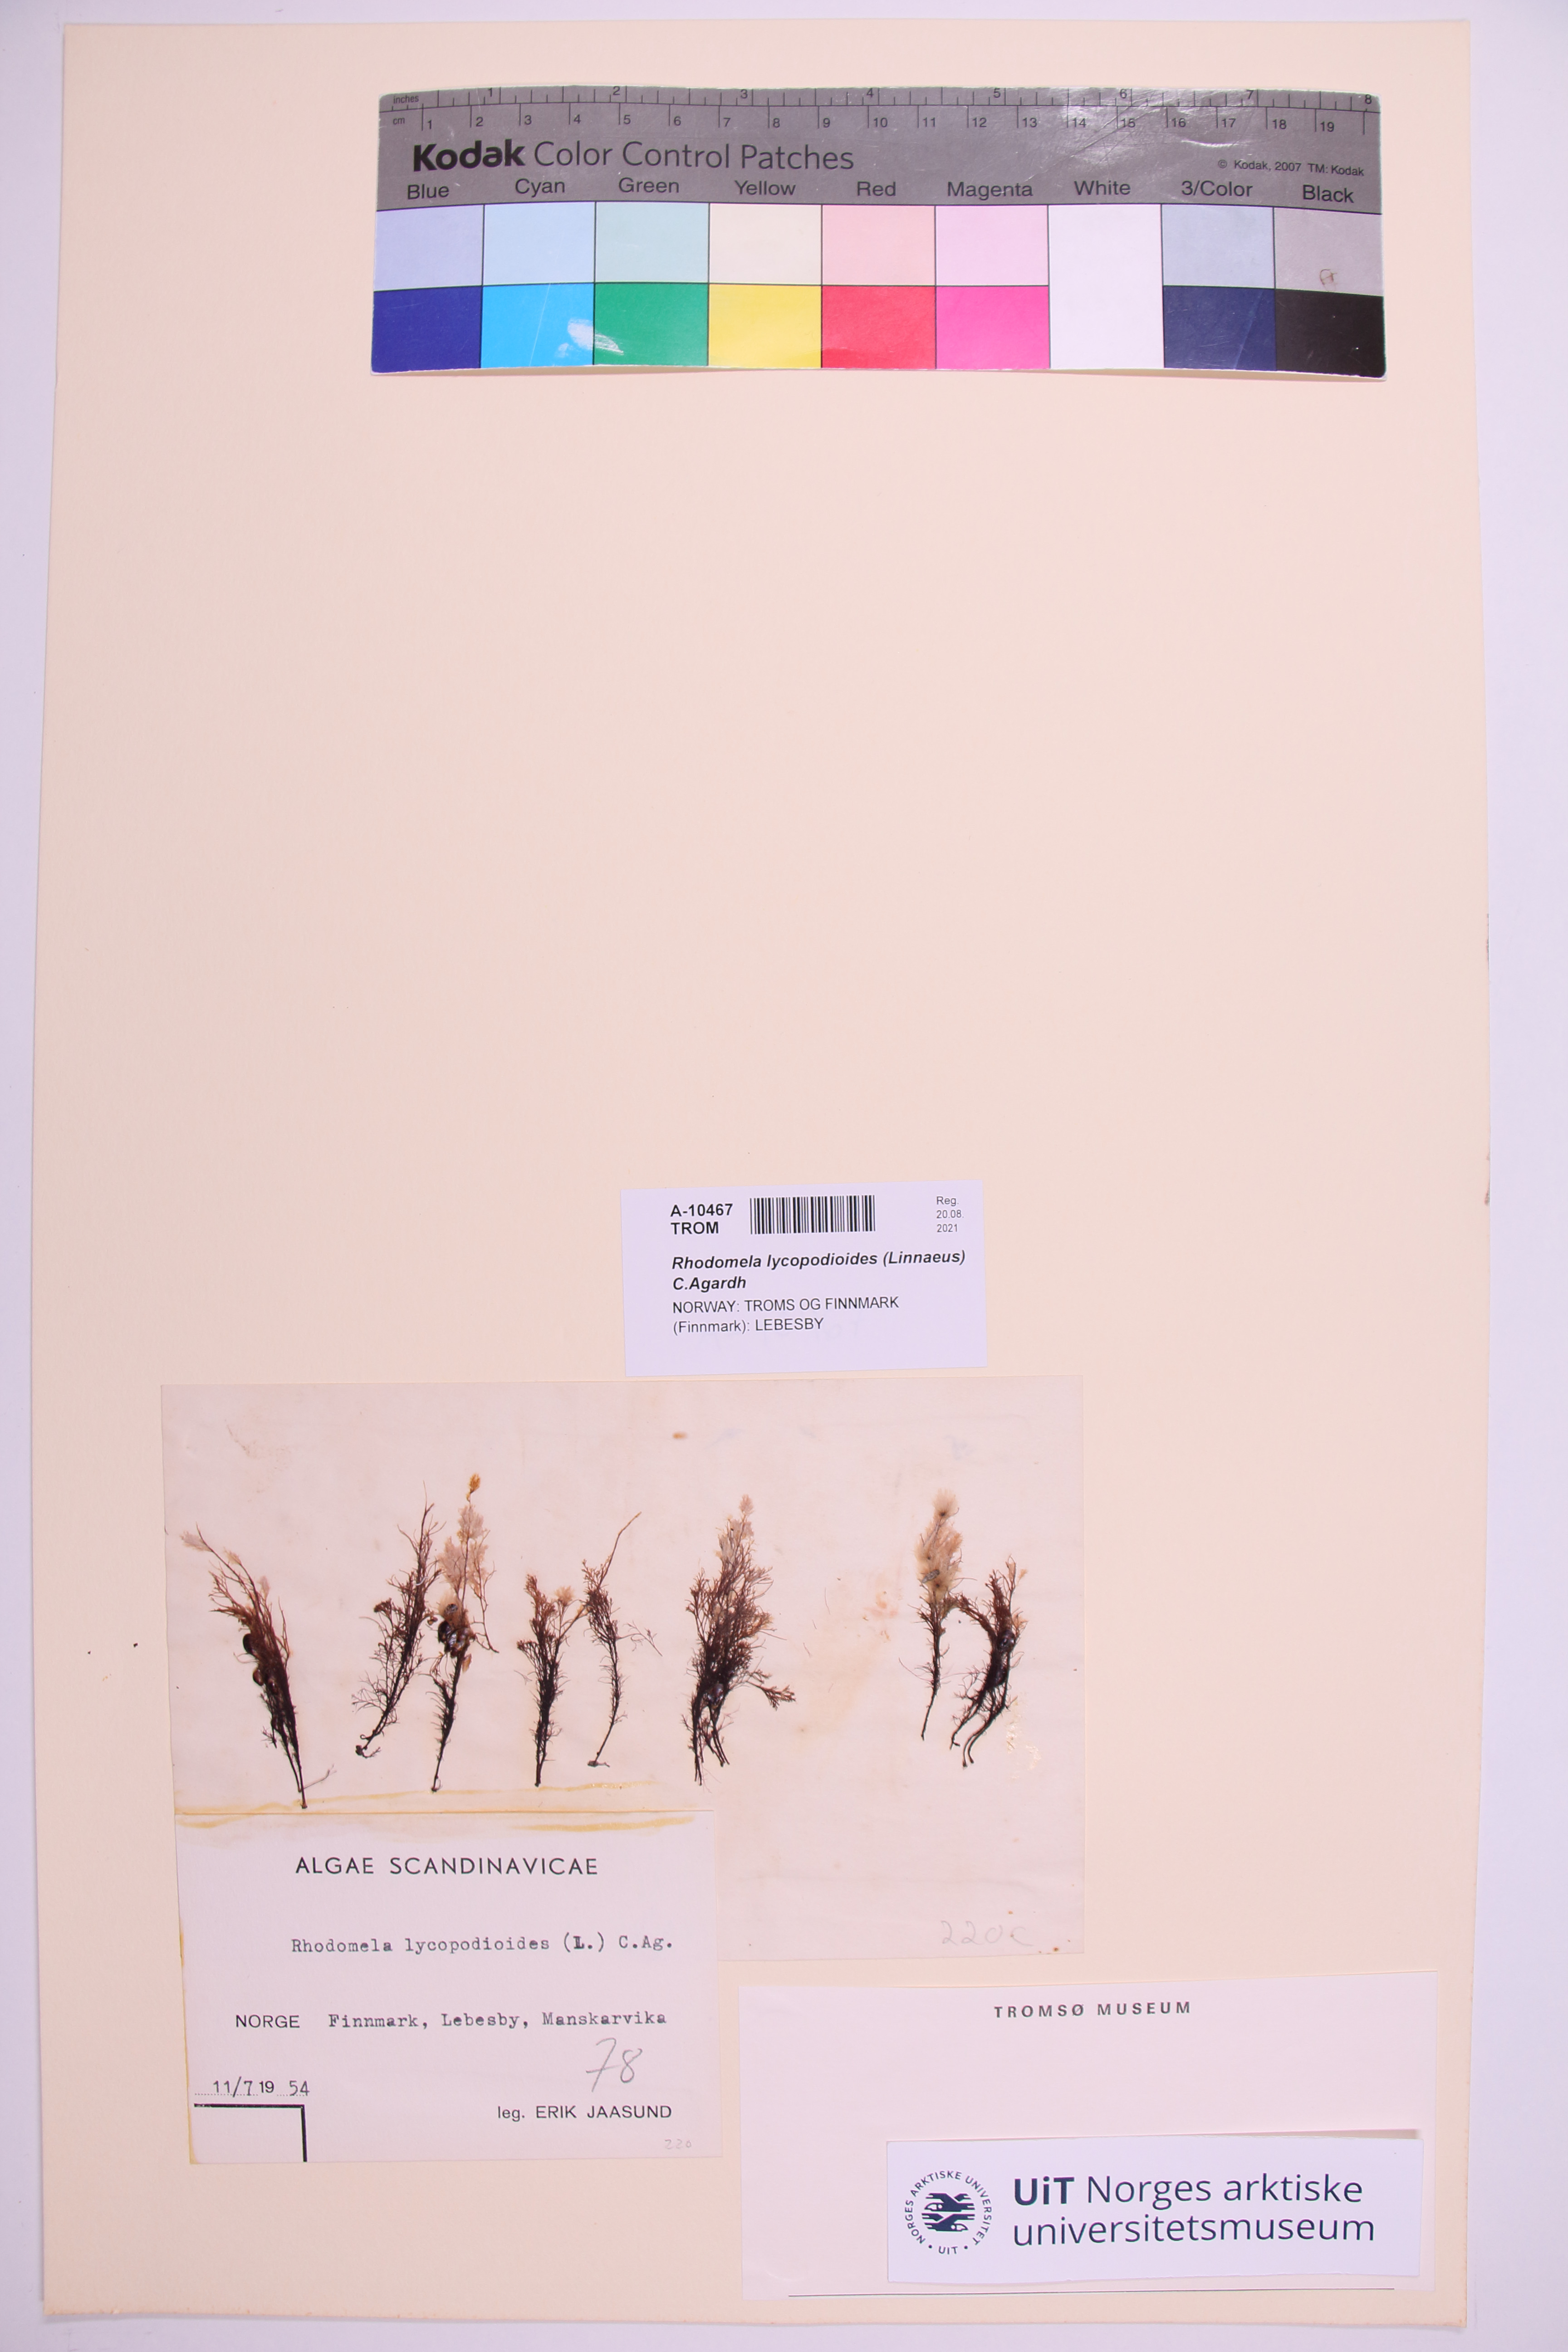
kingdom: Plantae
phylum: Rhodophyta
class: Florideophyceae
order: Ceramiales
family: Rhodomelaceae
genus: Rhodomela
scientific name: Rhodomela lycopodioides
